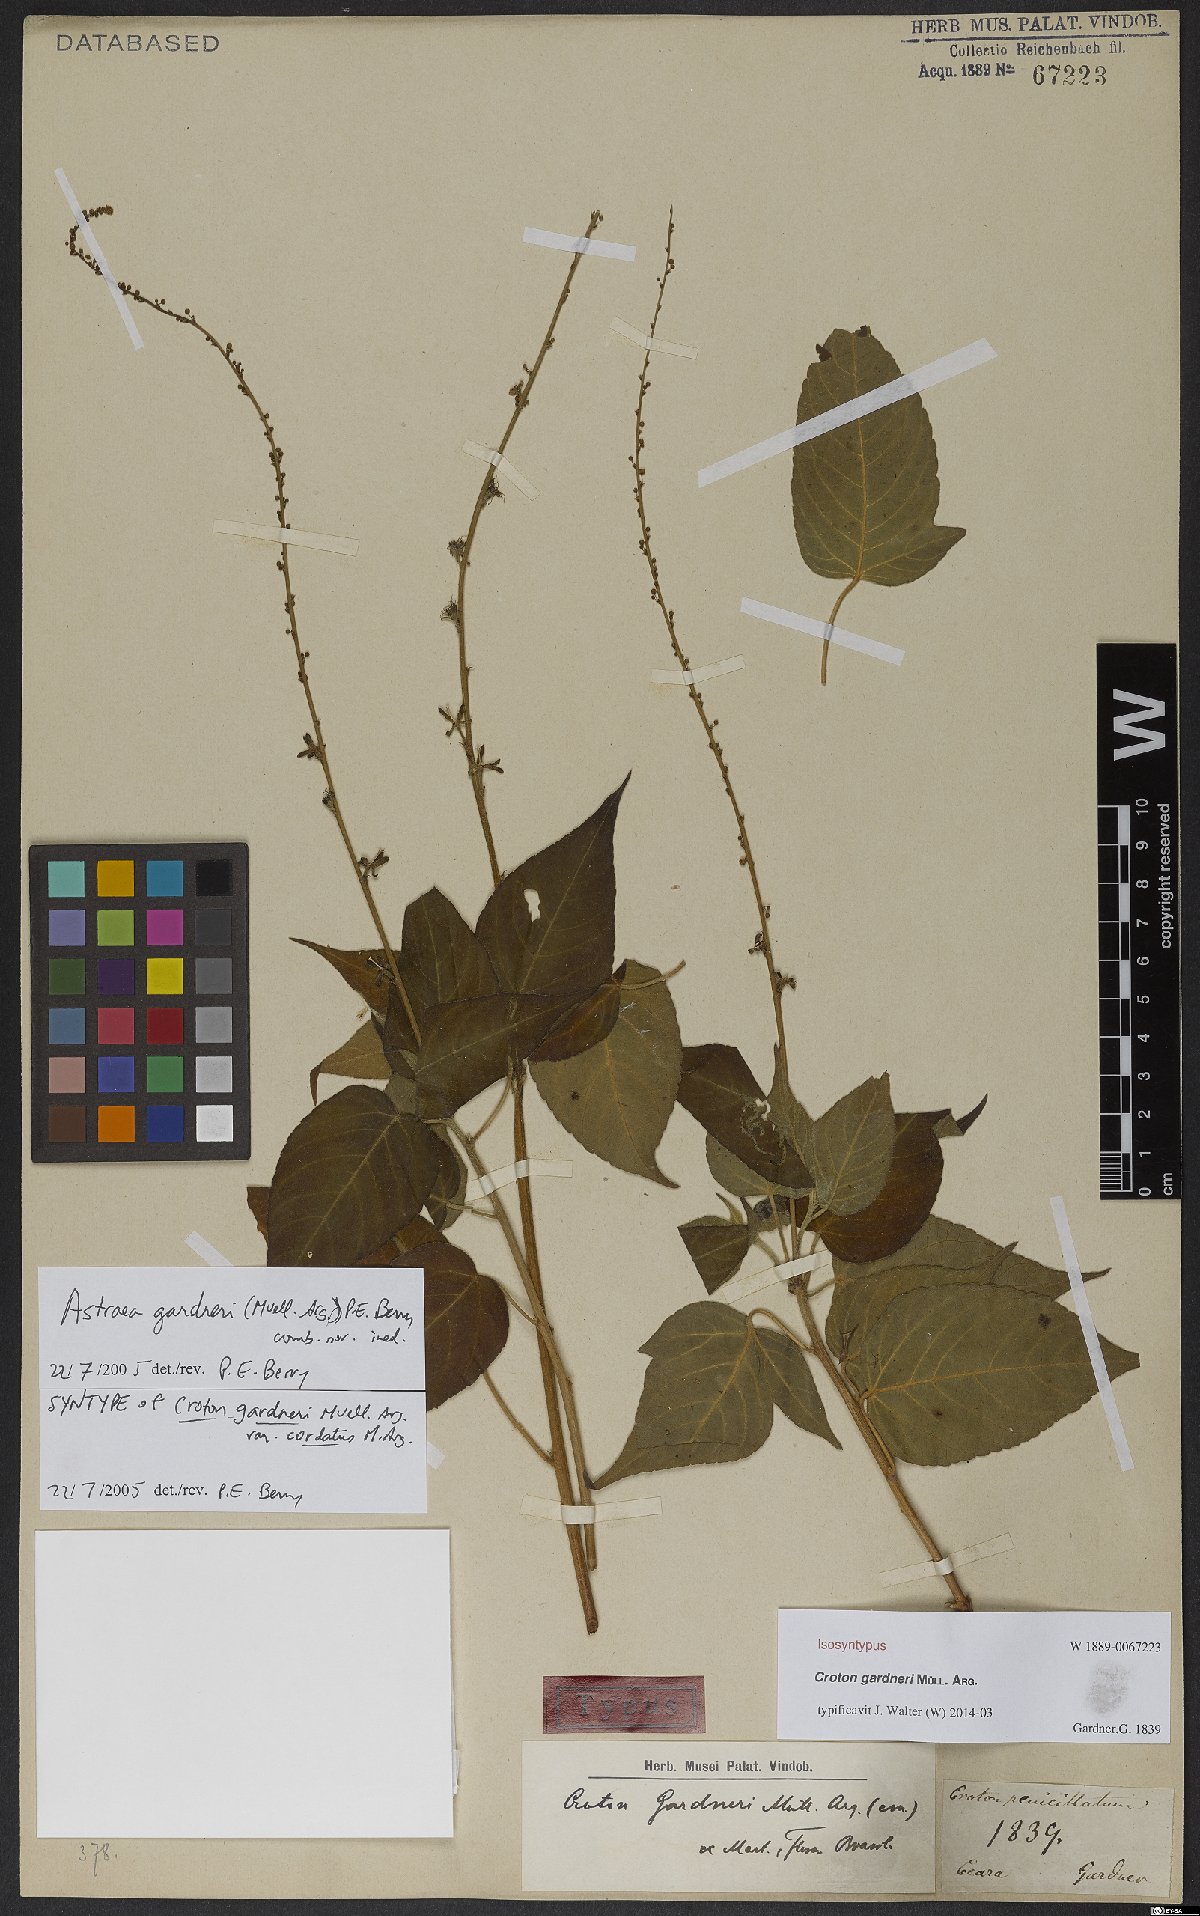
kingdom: Plantae
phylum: Tracheophyta
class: Magnoliopsida
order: Malpighiales
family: Euphorbiaceae
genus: Astraea
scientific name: Astraea paulina
